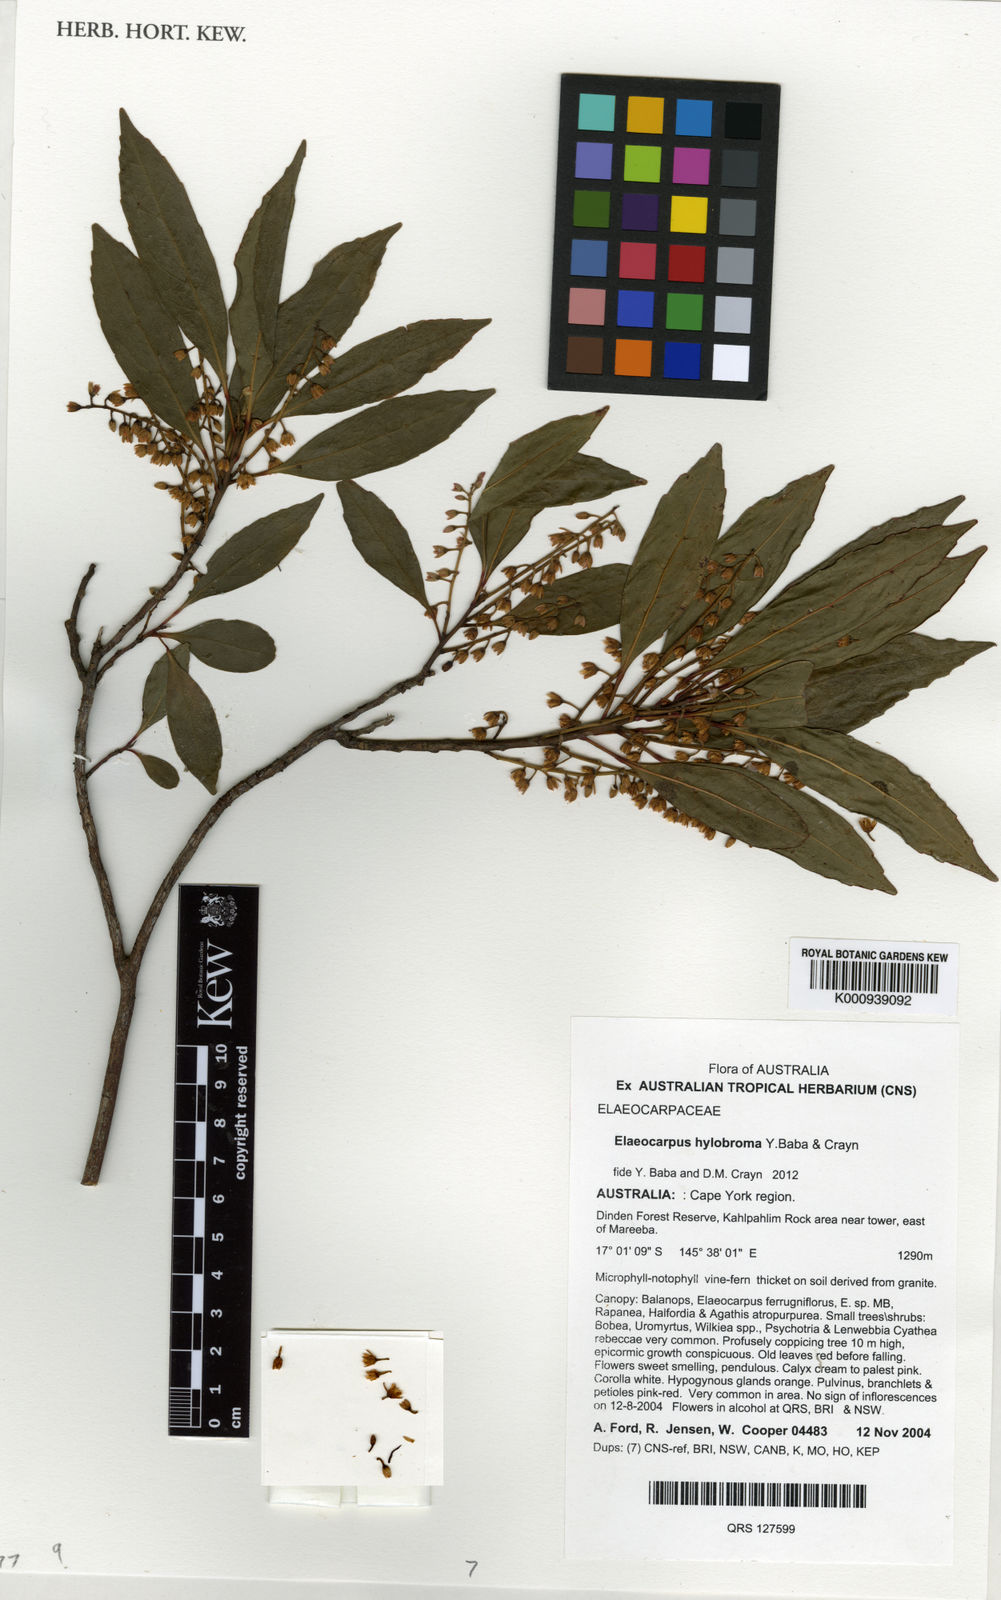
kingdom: Plantae
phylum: Tracheophyta
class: Magnoliopsida
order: Oxalidales
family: Elaeocarpaceae
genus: Elaeocarpus
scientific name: Elaeocarpus hylobroma
